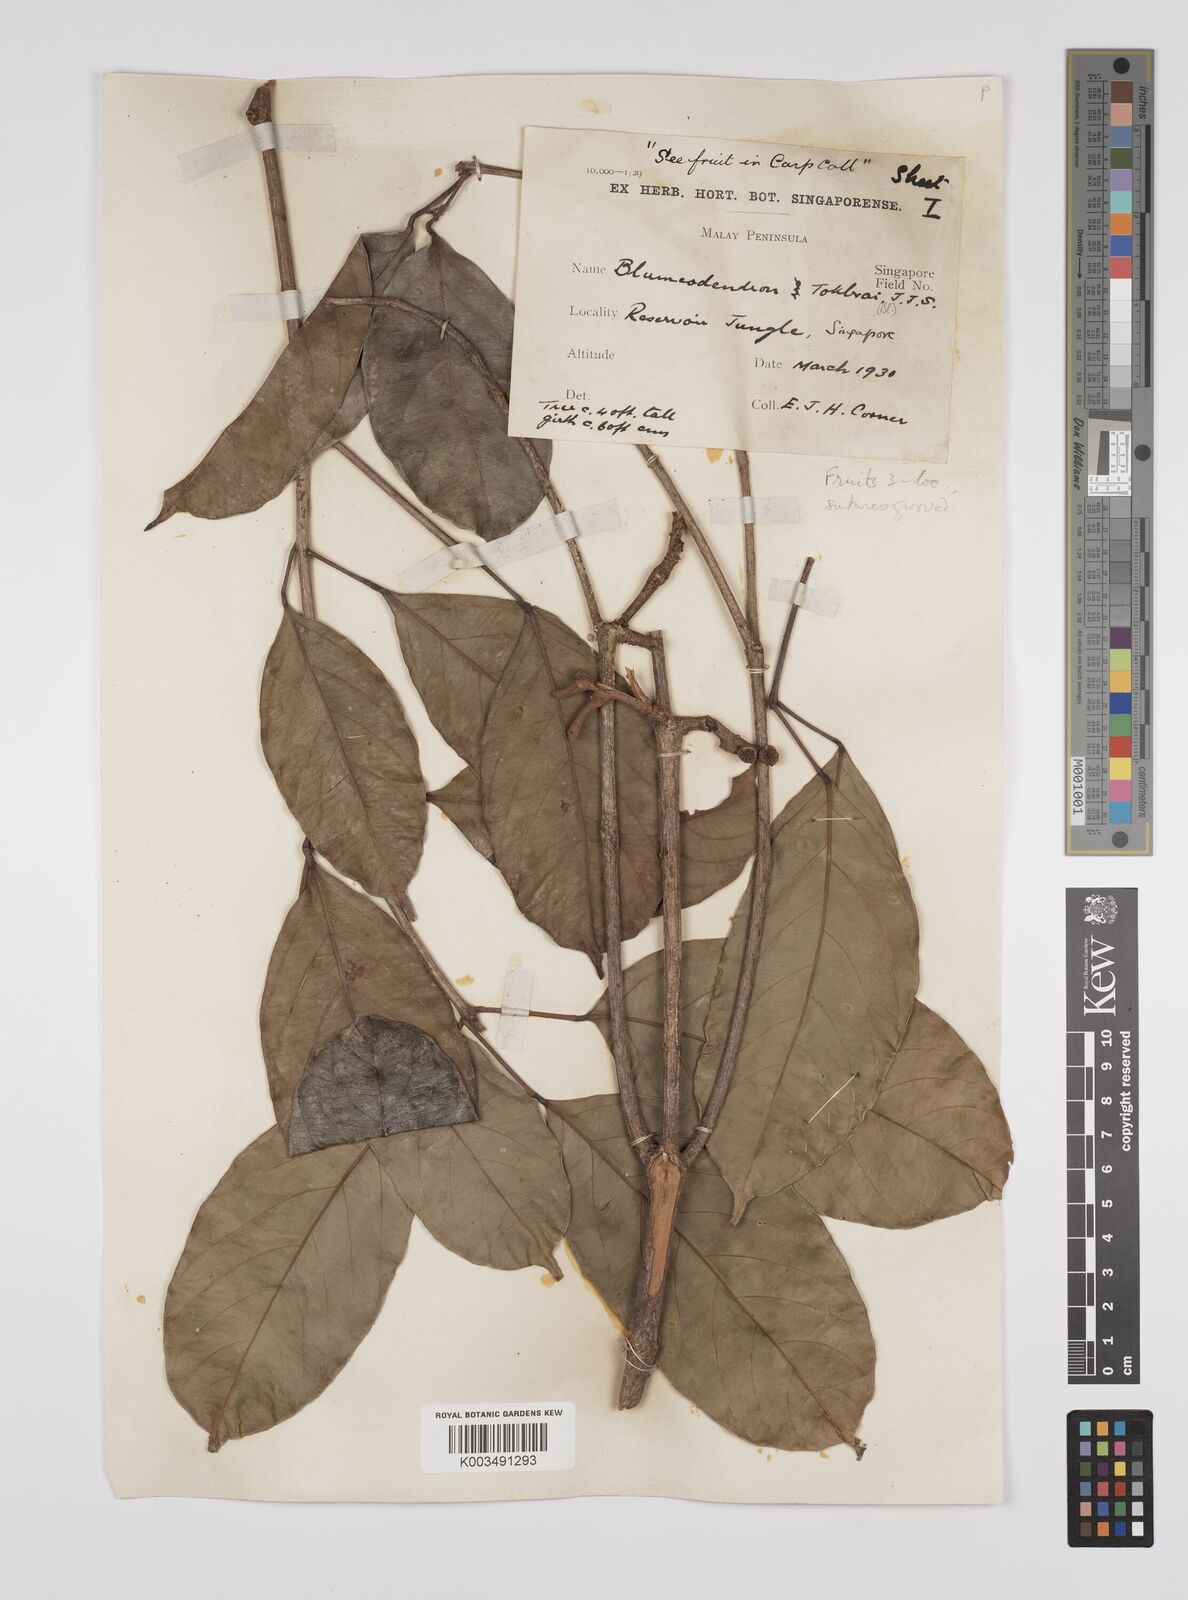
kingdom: Plantae
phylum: Tracheophyta
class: Magnoliopsida
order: Malpighiales
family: Euphorbiaceae
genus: Blumeodendron
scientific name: Blumeodendron tokbrai
